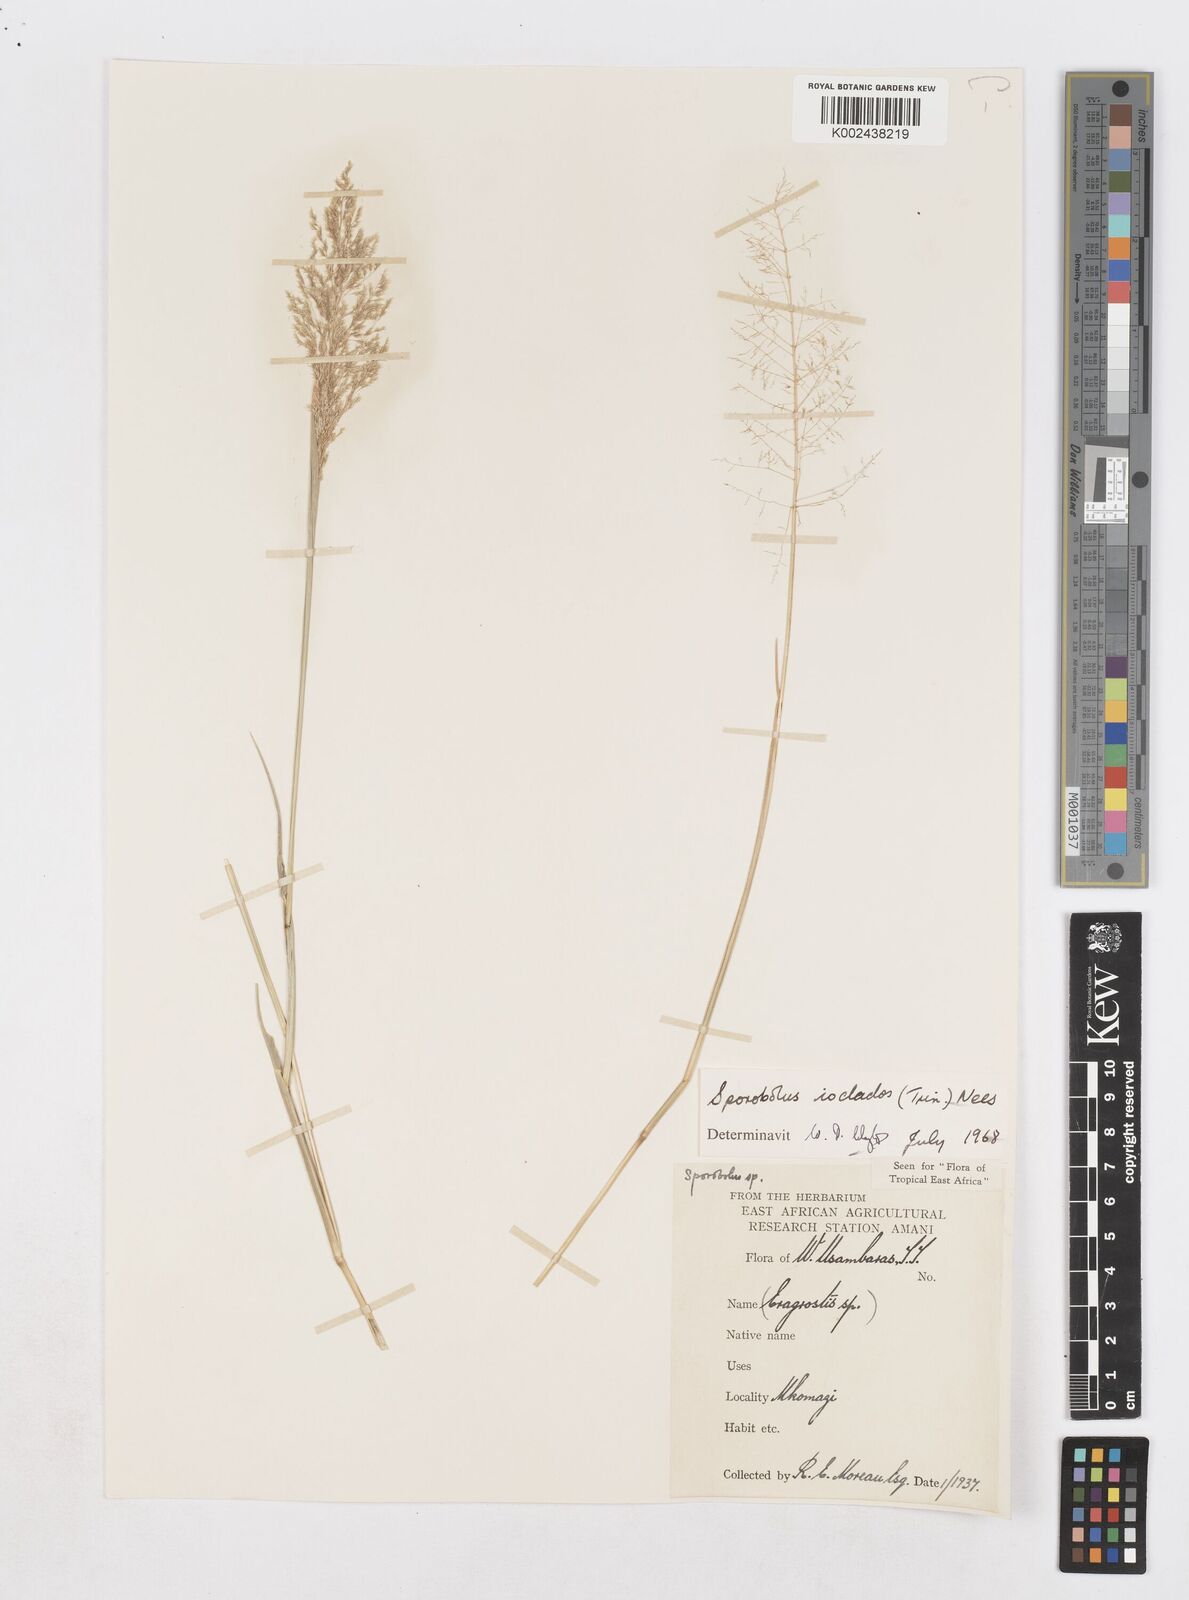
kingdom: Plantae
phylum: Tracheophyta
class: Liliopsida
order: Poales
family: Poaceae
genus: Sporobolus
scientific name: Sporobolus ioclados
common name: Pan dropseed
